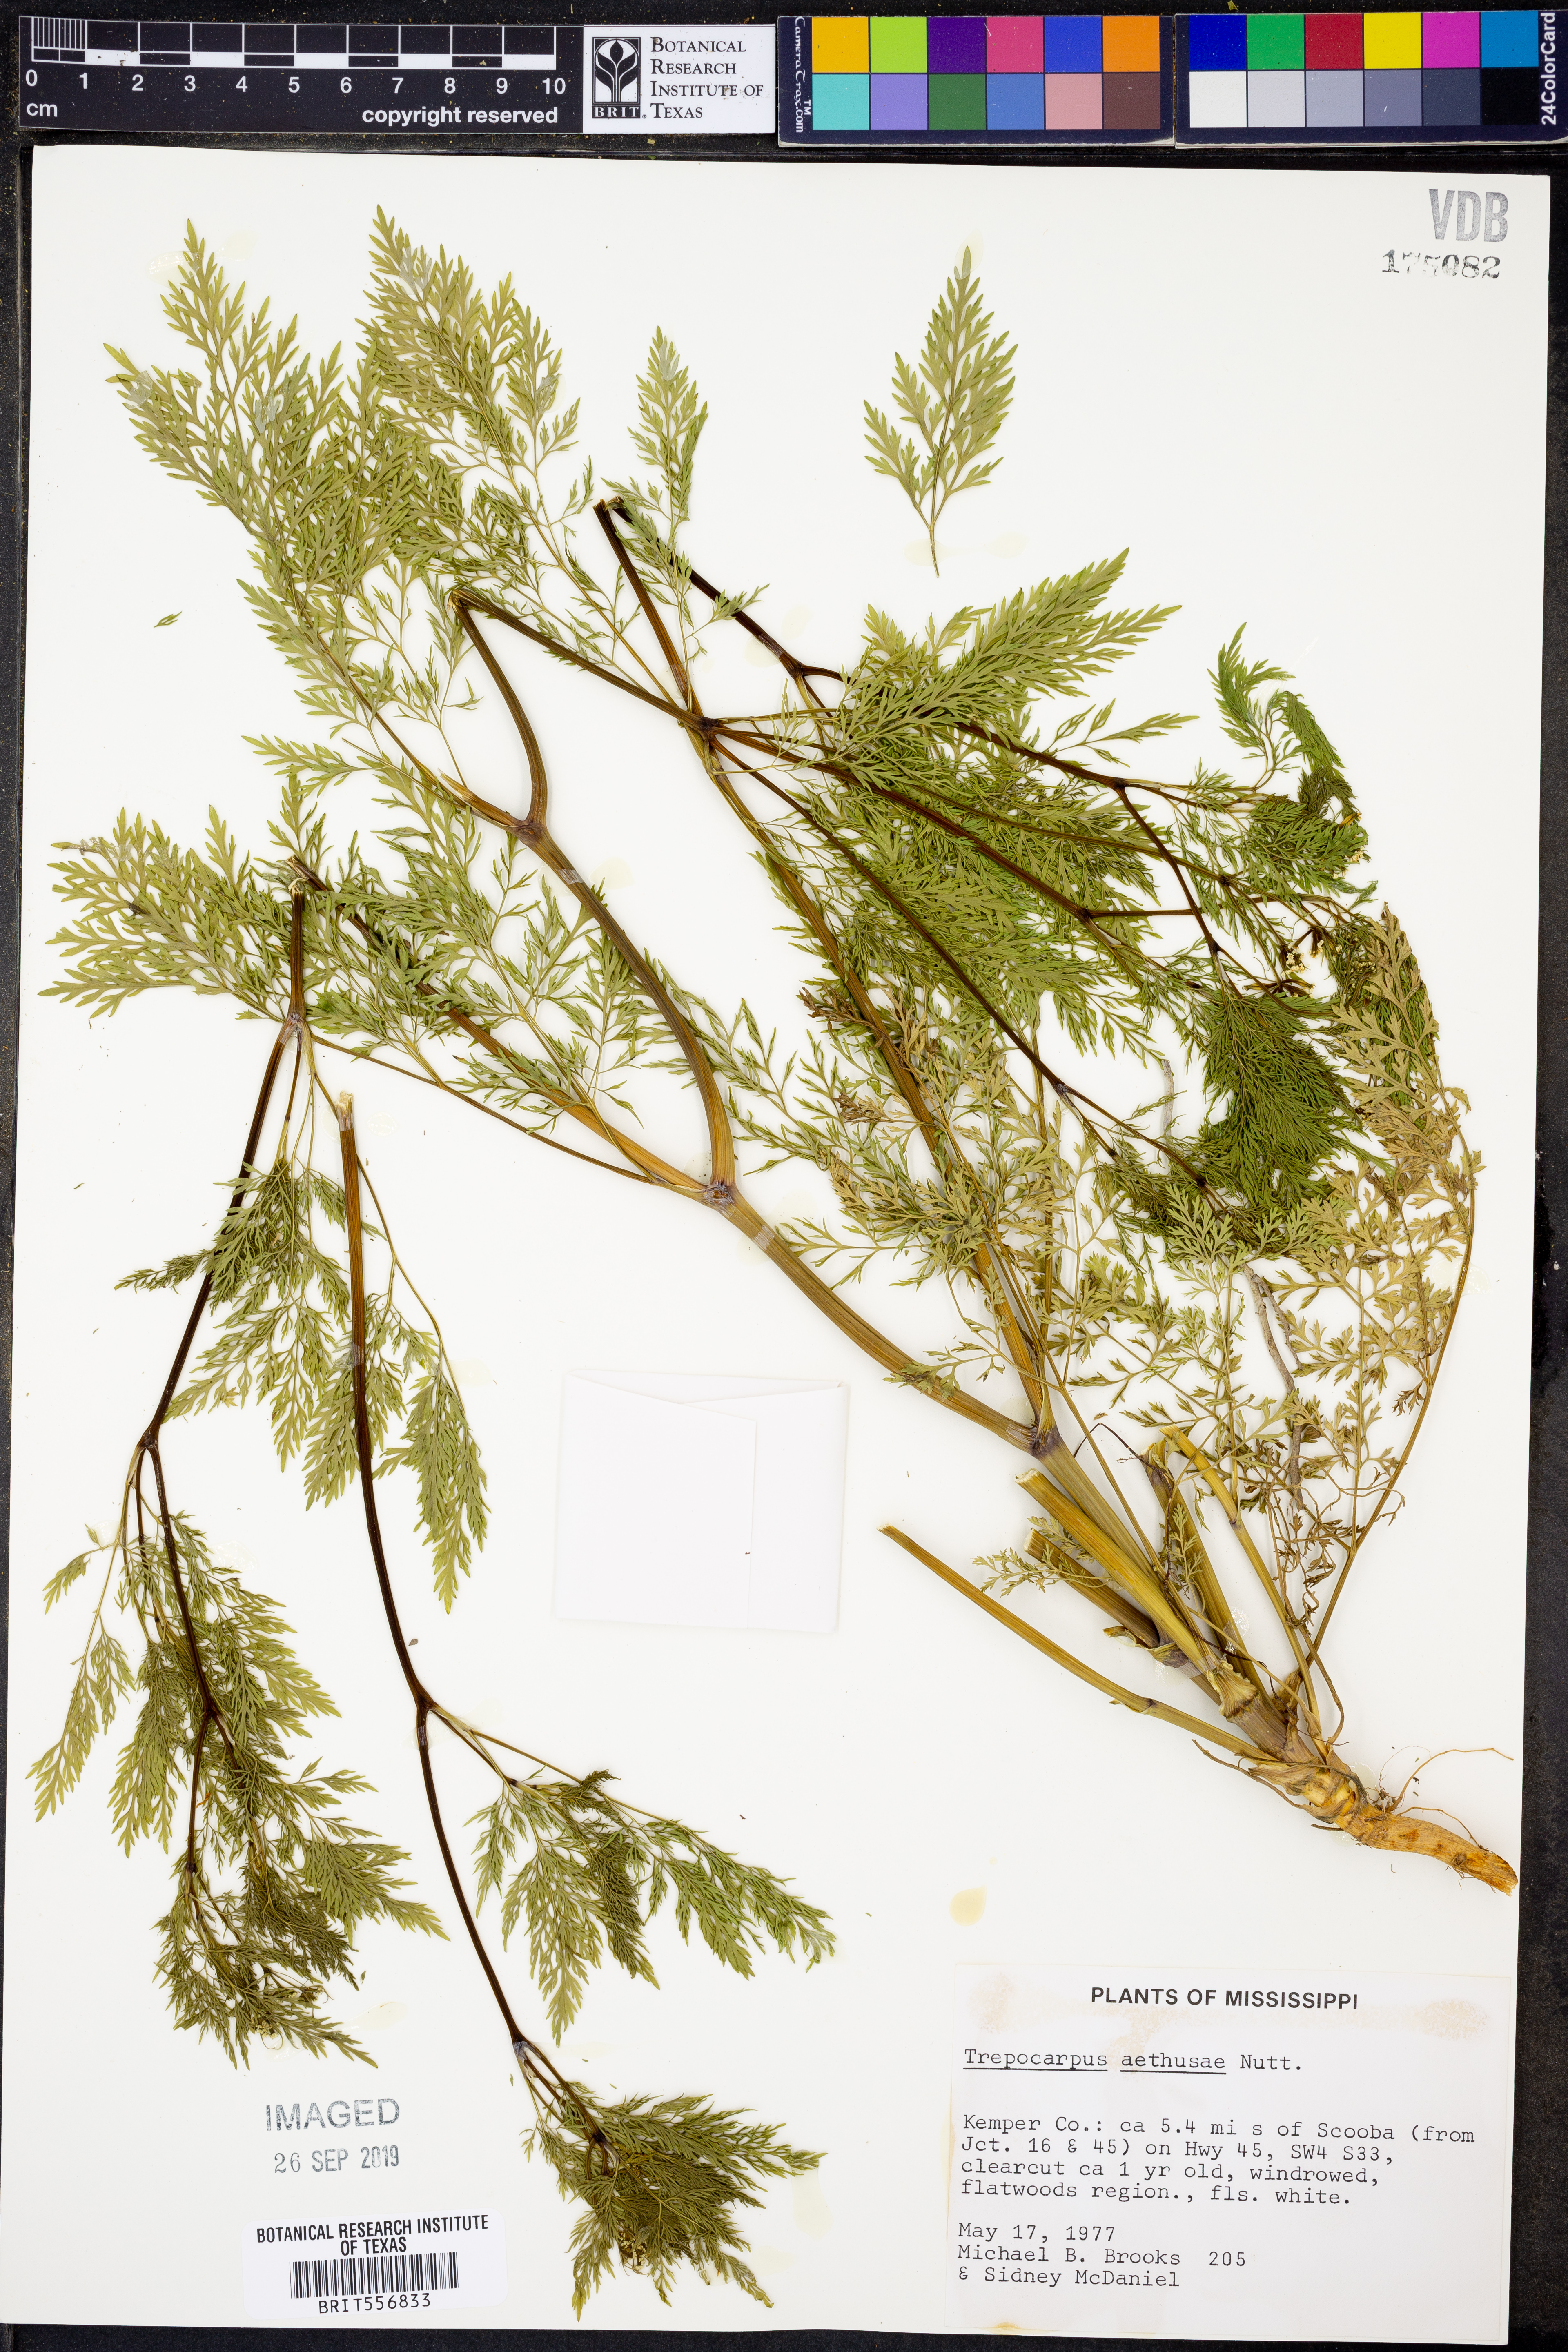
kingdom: Plantae
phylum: Tracheophyta
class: Magnoliopsida
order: Apiales
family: Apiaceae
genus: Trepocarpus
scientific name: Trepocarpus aethusae
